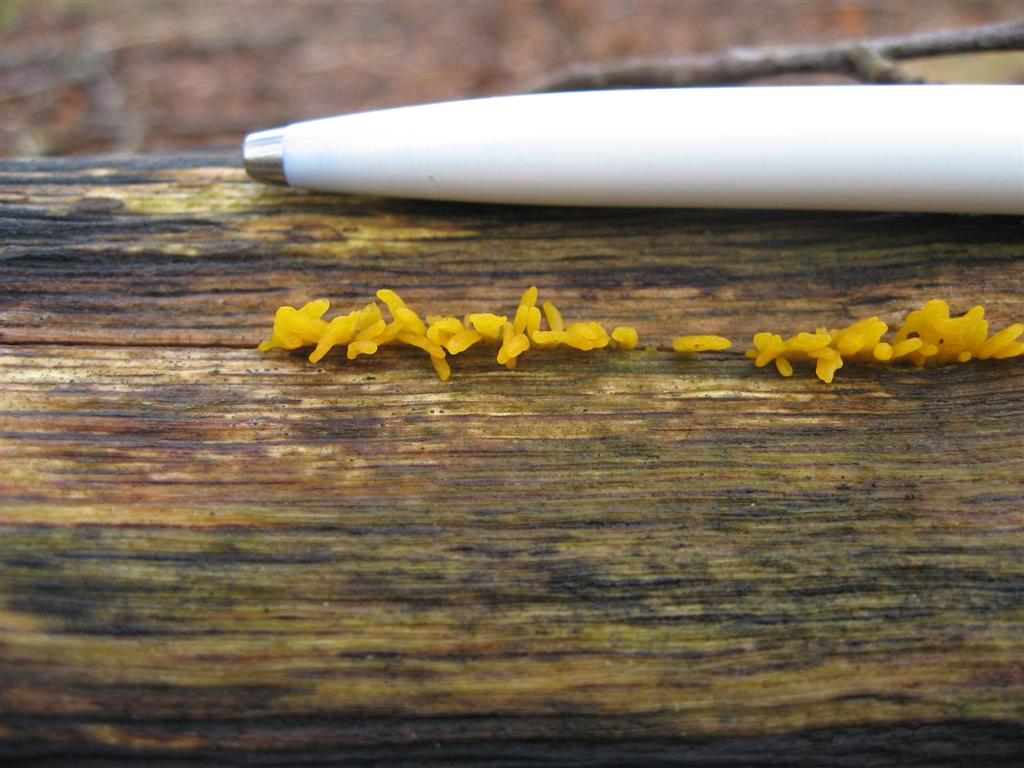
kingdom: Fungi
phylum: Basidiomycota
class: Dacrymycetes
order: Dacrymycetales
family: Dacrymycetaceae
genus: Calocera
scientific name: Calocera cornea
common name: liden guldgaffel
